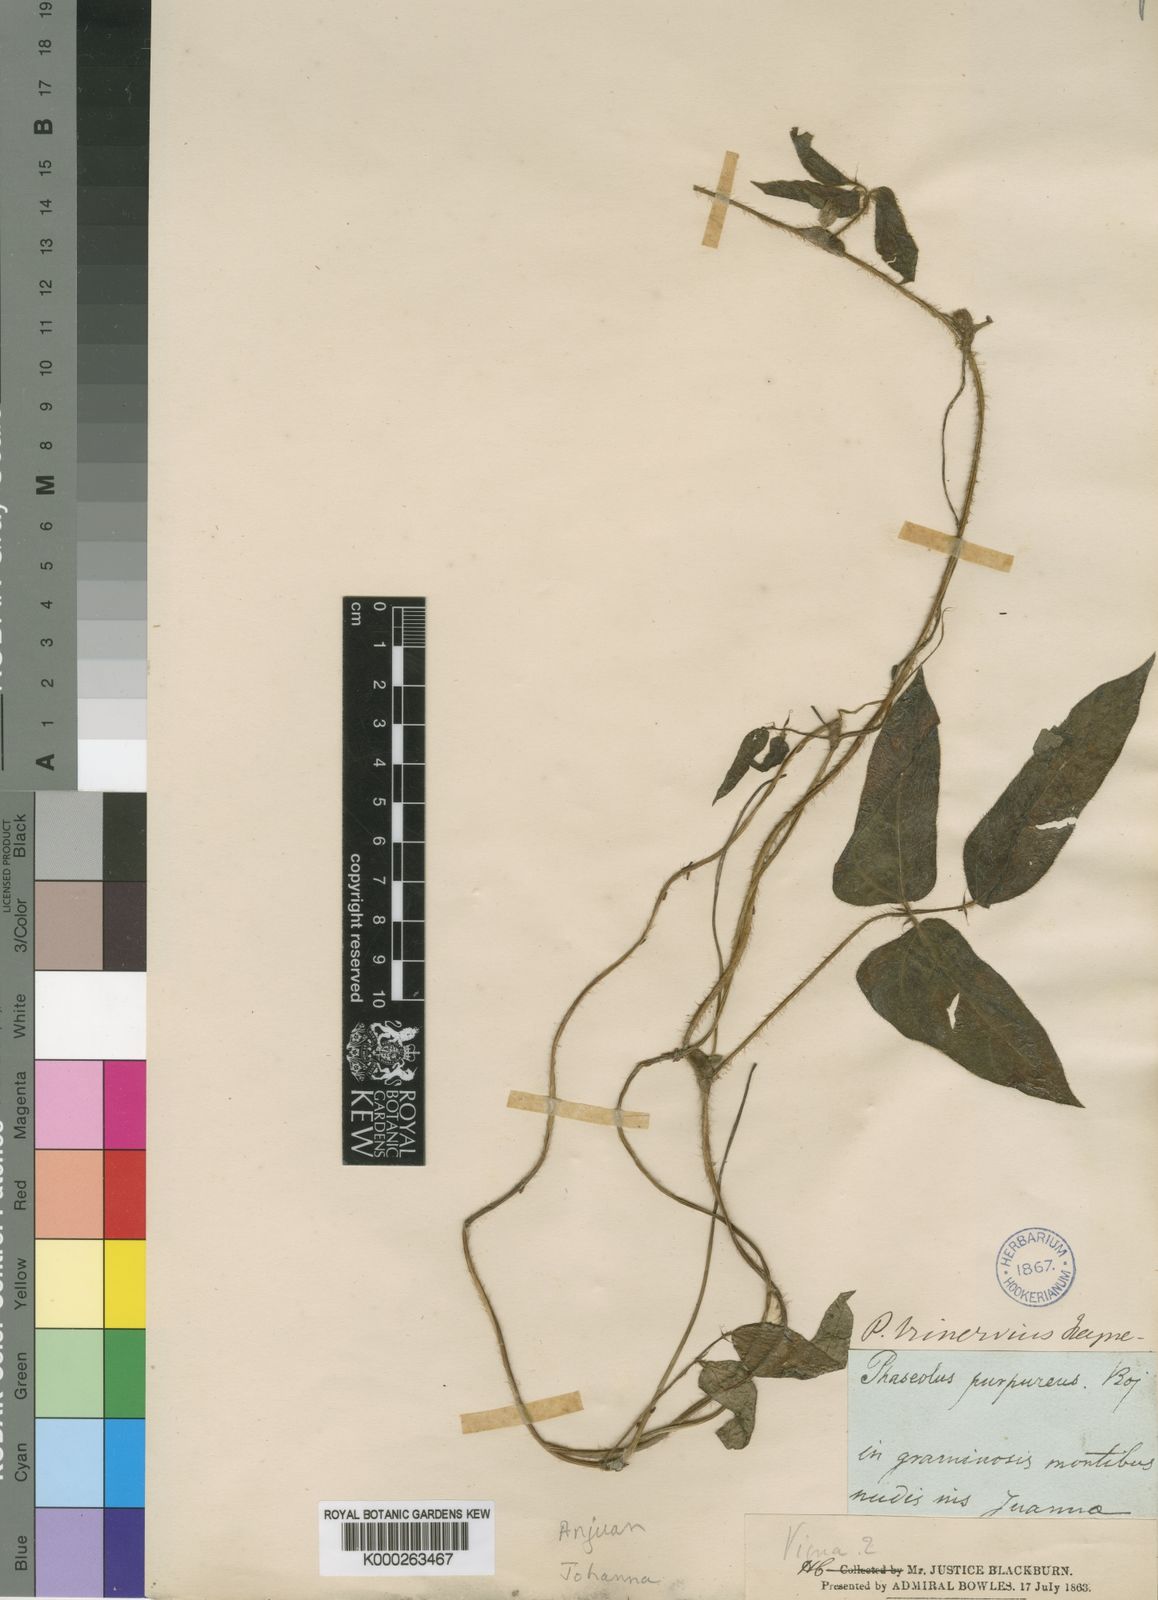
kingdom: Plantae
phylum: Tracheophyta
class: Magnoliopsida
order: Fabales
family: Fabaceae
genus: Vigna
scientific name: Vigna
